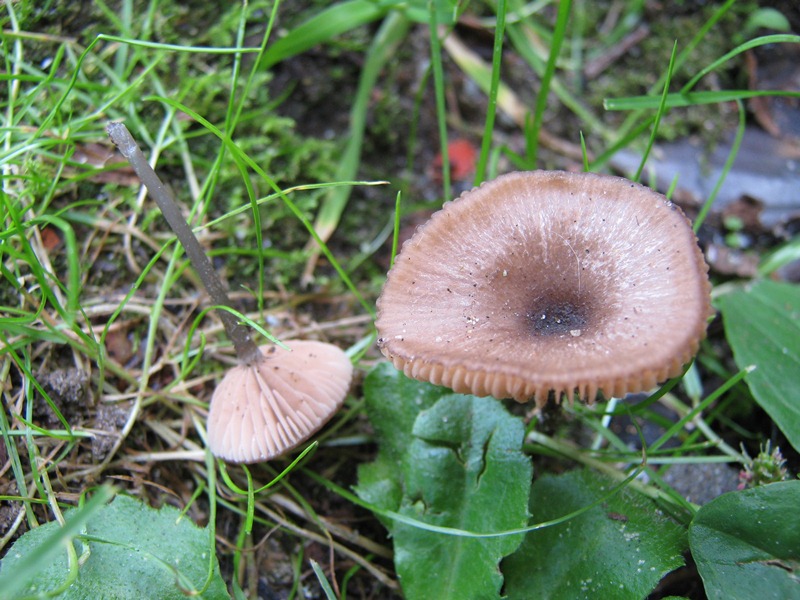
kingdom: Fungi
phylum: Basidiomycota
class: Agaricomycetes
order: Agaricales
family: Entolomataceae
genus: Entoloma
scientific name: Entoloma incarnatofuscescens
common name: tragt-rødblad
